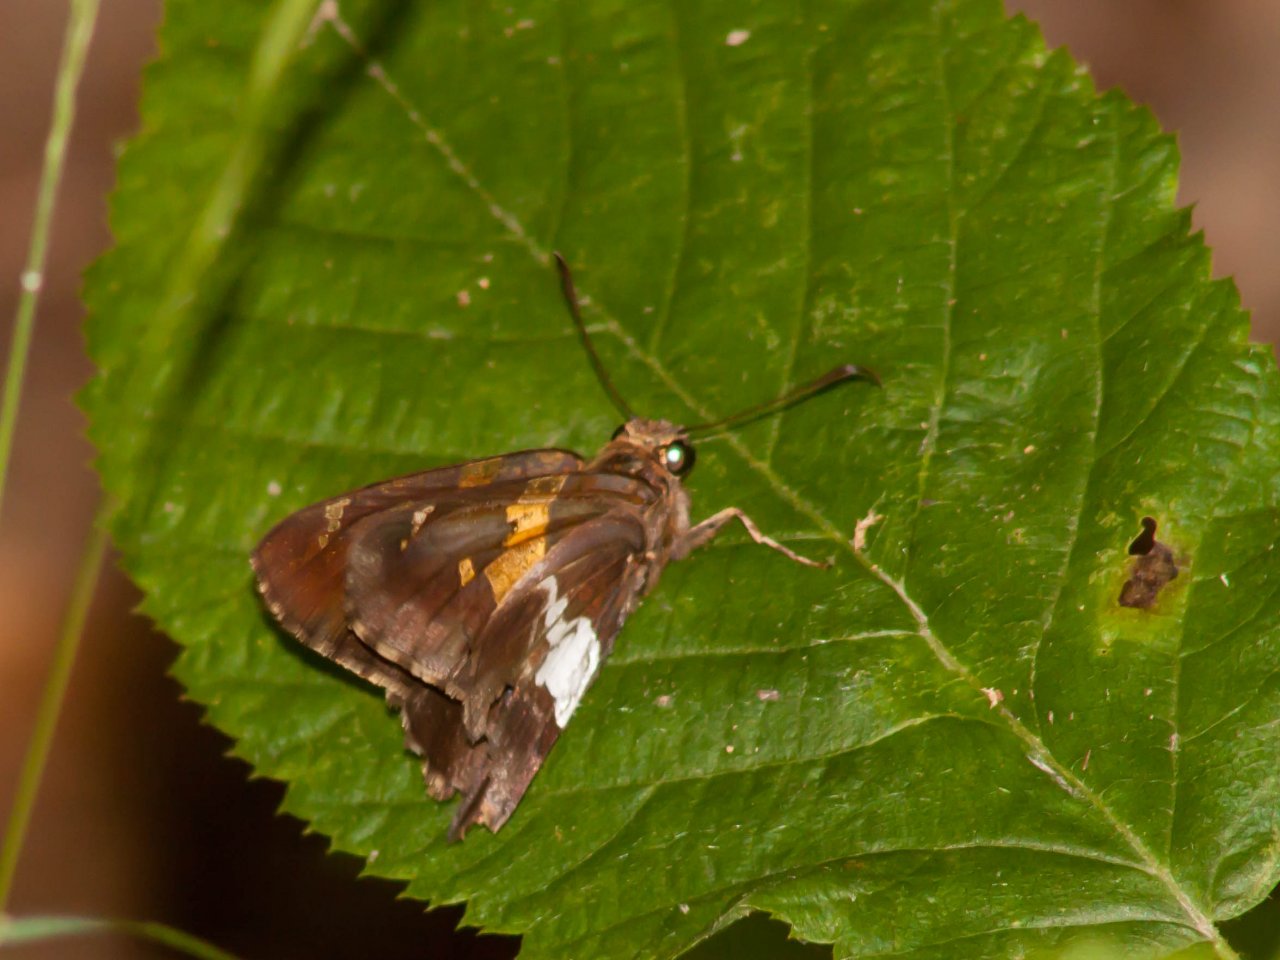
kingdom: Animalia
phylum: Arthropoda
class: Insecta
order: Lepidoptera
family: Hesperiidae
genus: Epargyreus
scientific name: Epargyreus clarus
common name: Silver-spotted Skipper
